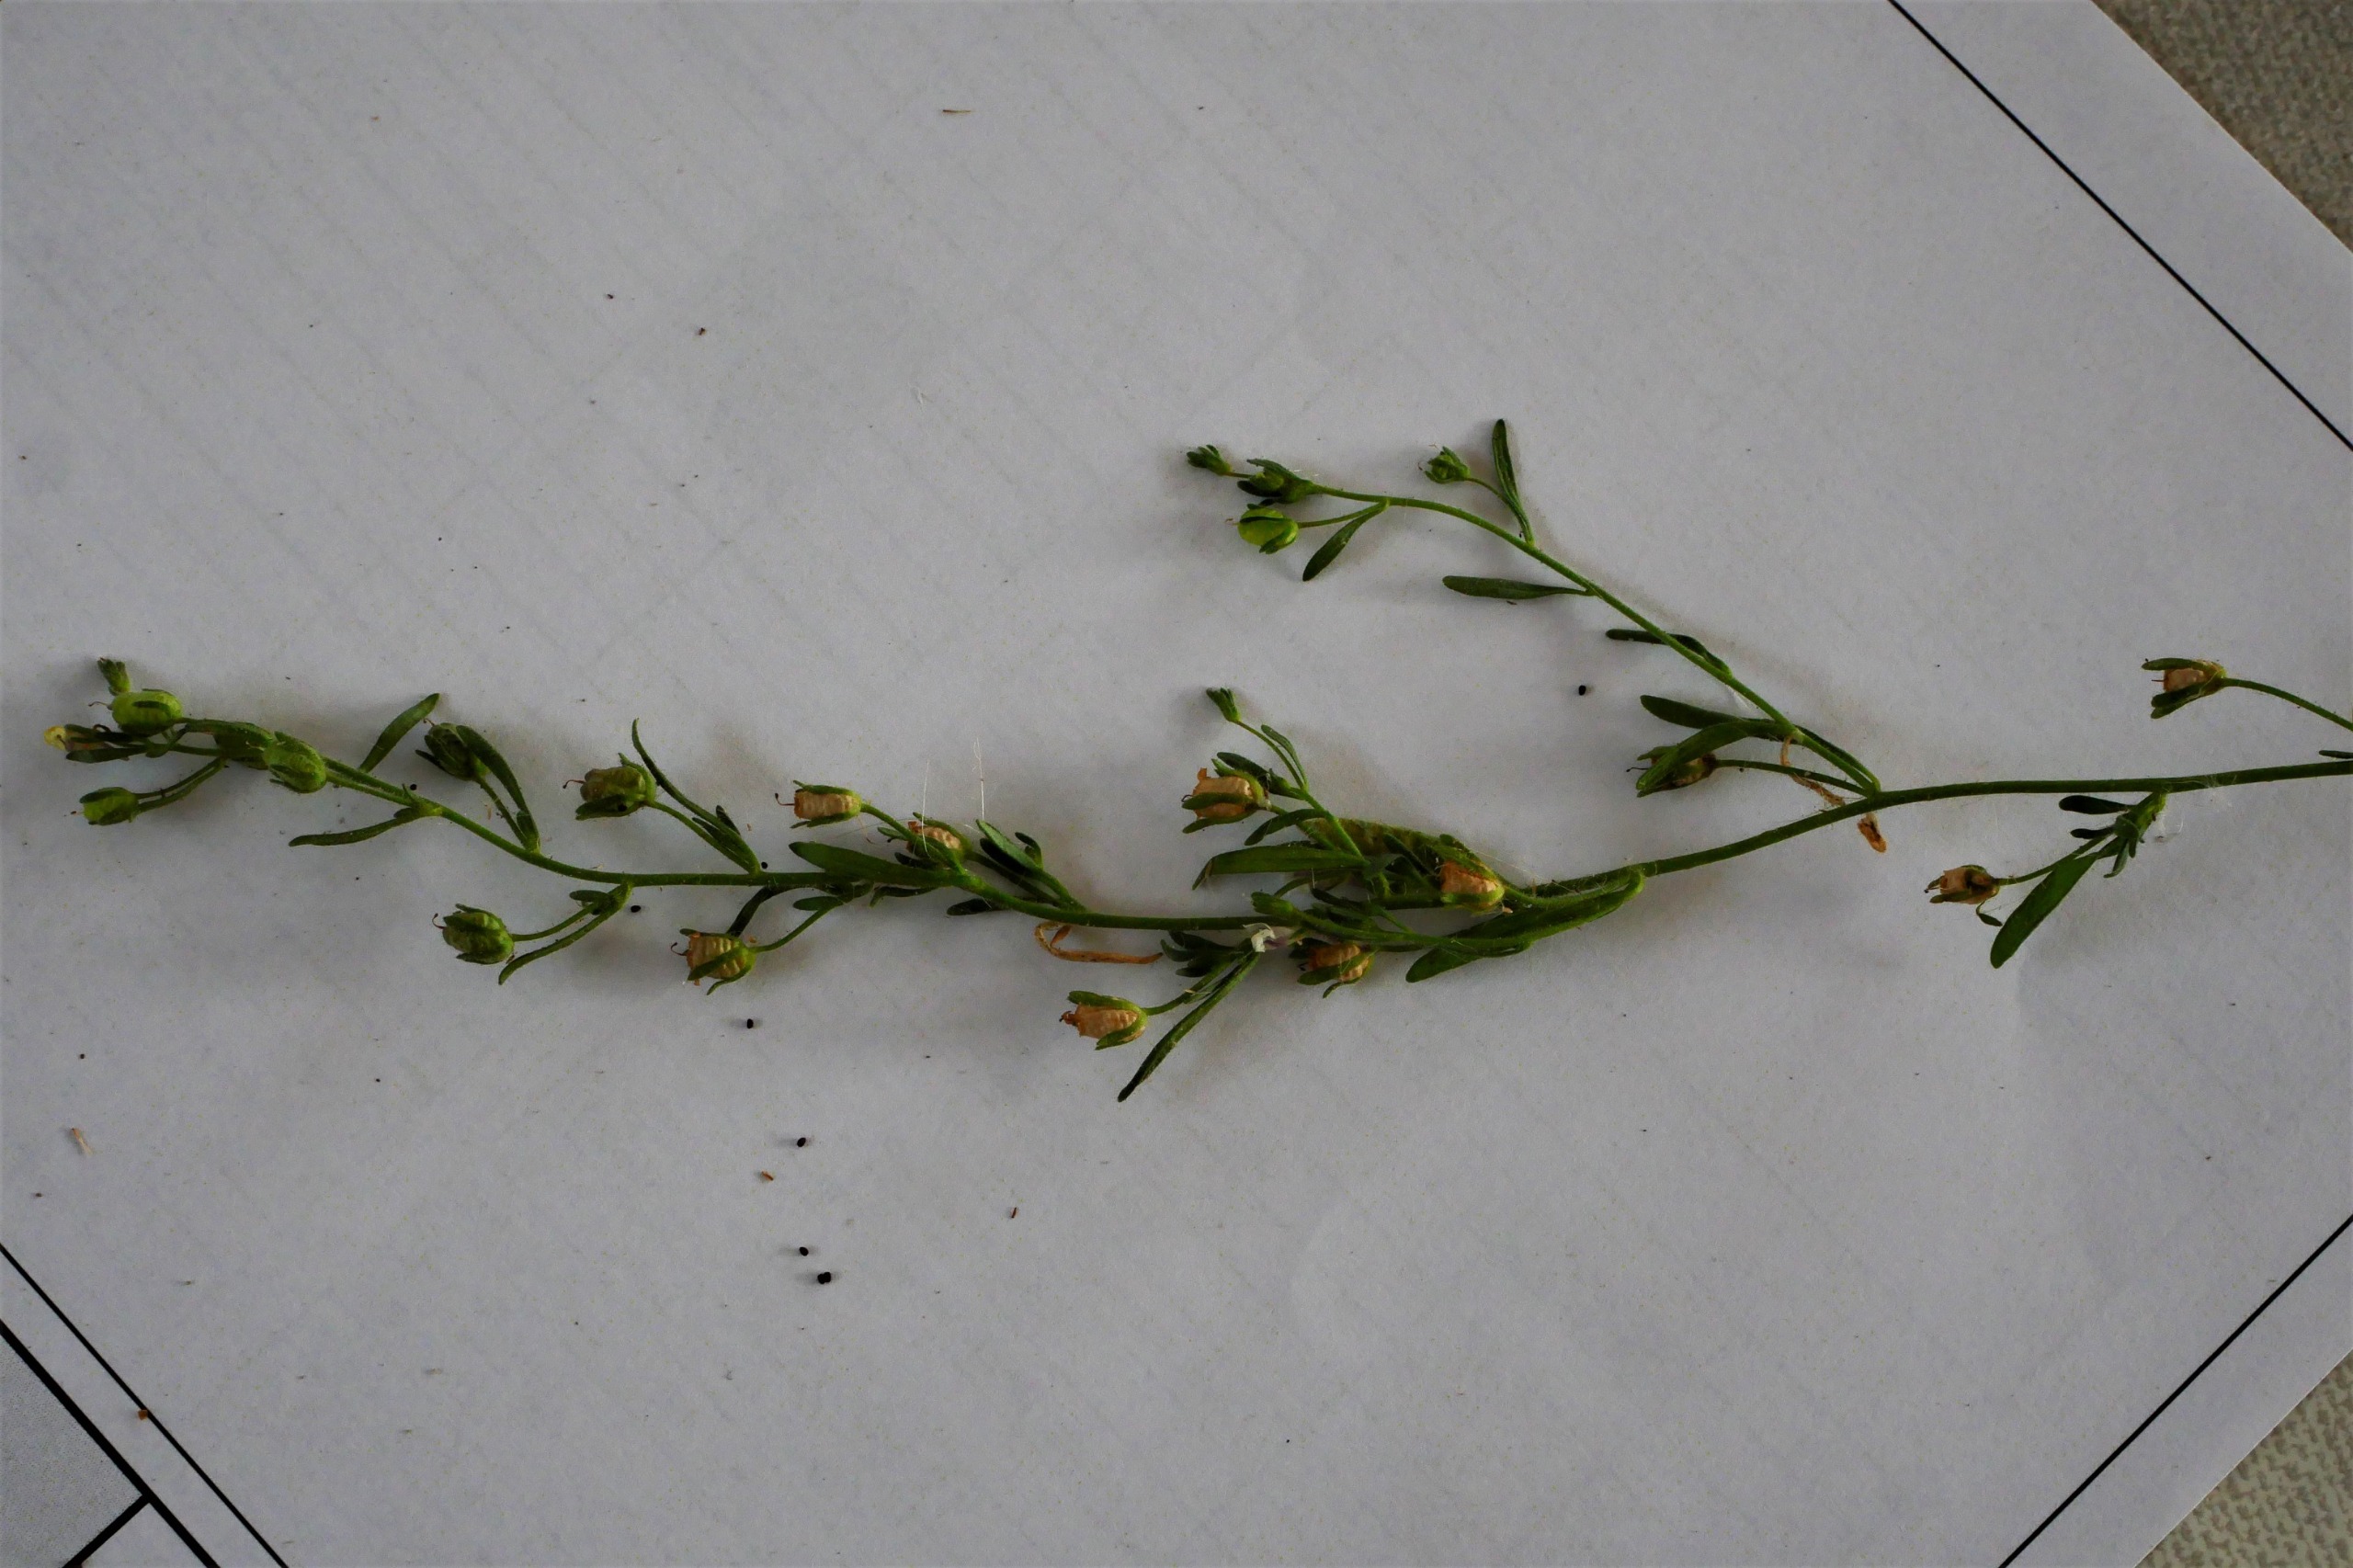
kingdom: Plantae
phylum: Tracheophyta
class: Magnoliopsida
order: Lamiales
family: Plantaginaceae
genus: Chaenorhinum
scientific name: Chaenorhinum minus
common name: Liden torskemund
